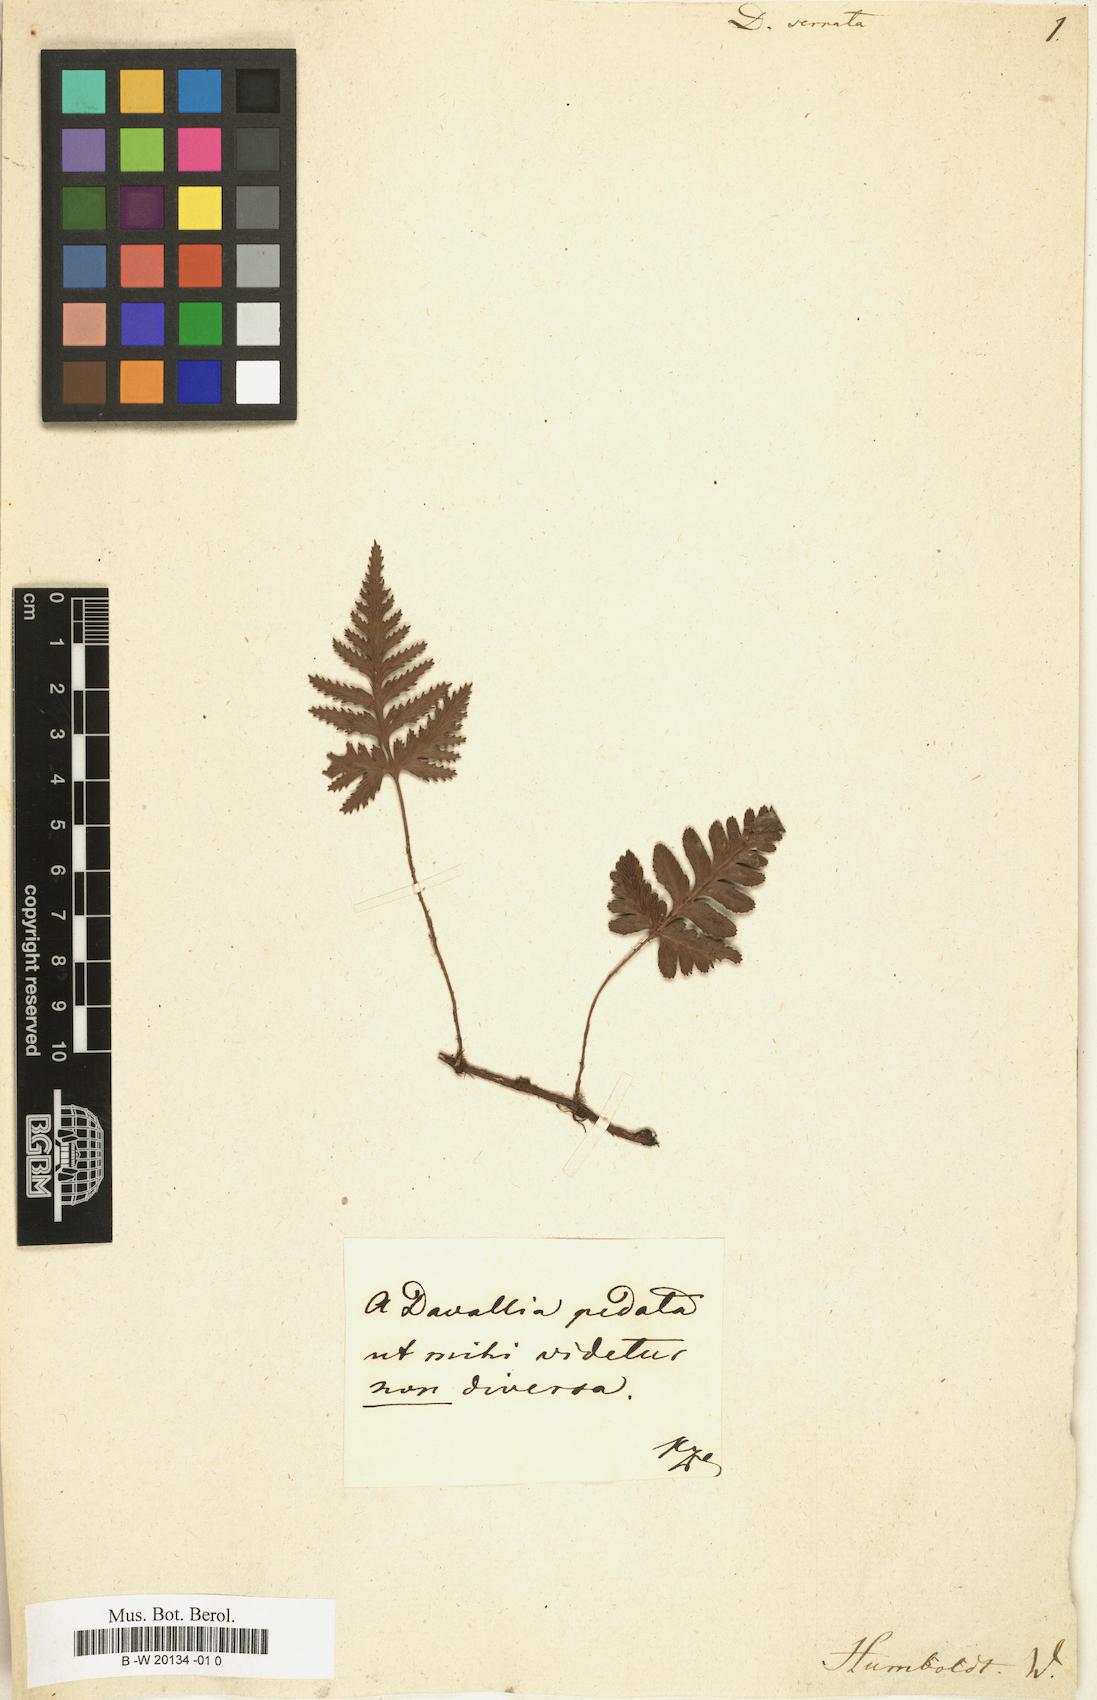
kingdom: Plantae
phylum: Tracheophyta
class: Polypodiopsida
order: Polypodiales
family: Davalliaceae
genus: Davallia
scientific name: Davallia serrata
